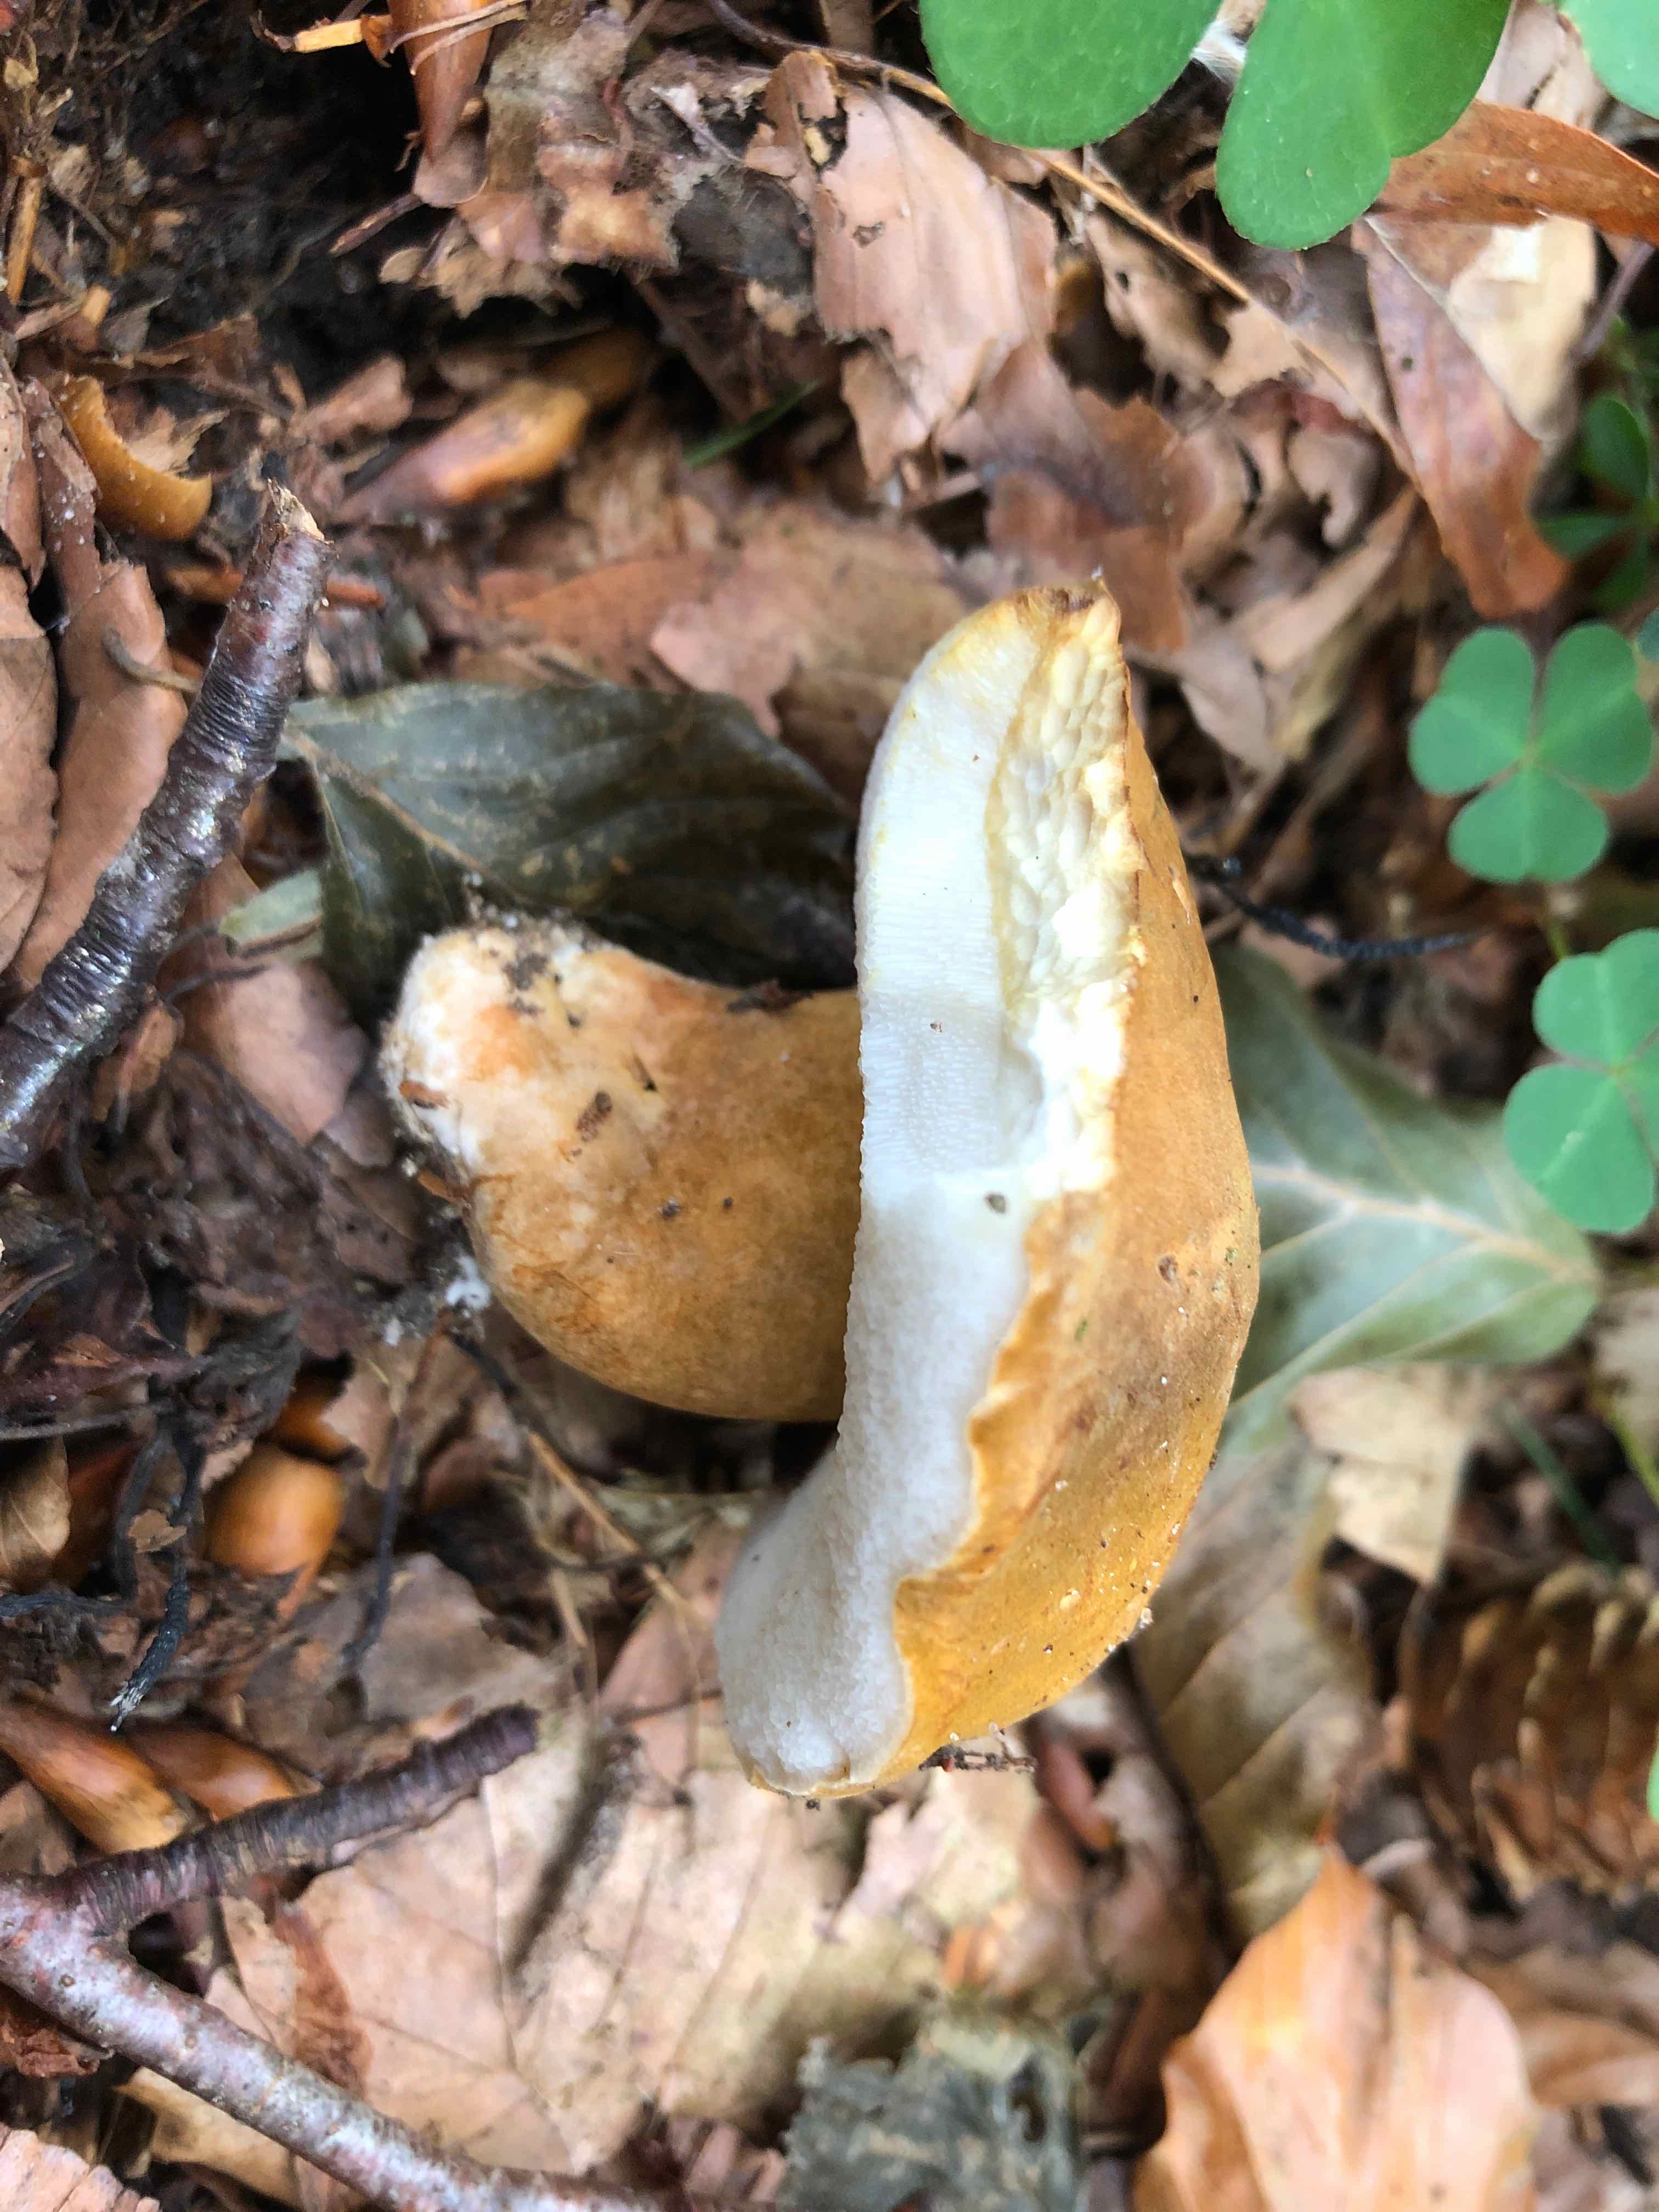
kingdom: Fungi
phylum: Basidiomycota
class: Agaricomycetes
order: Boletales
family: Gyroporaceae
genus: Gyroporus
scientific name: Gyroporus castaneus
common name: kastanie-kammerrørhat
